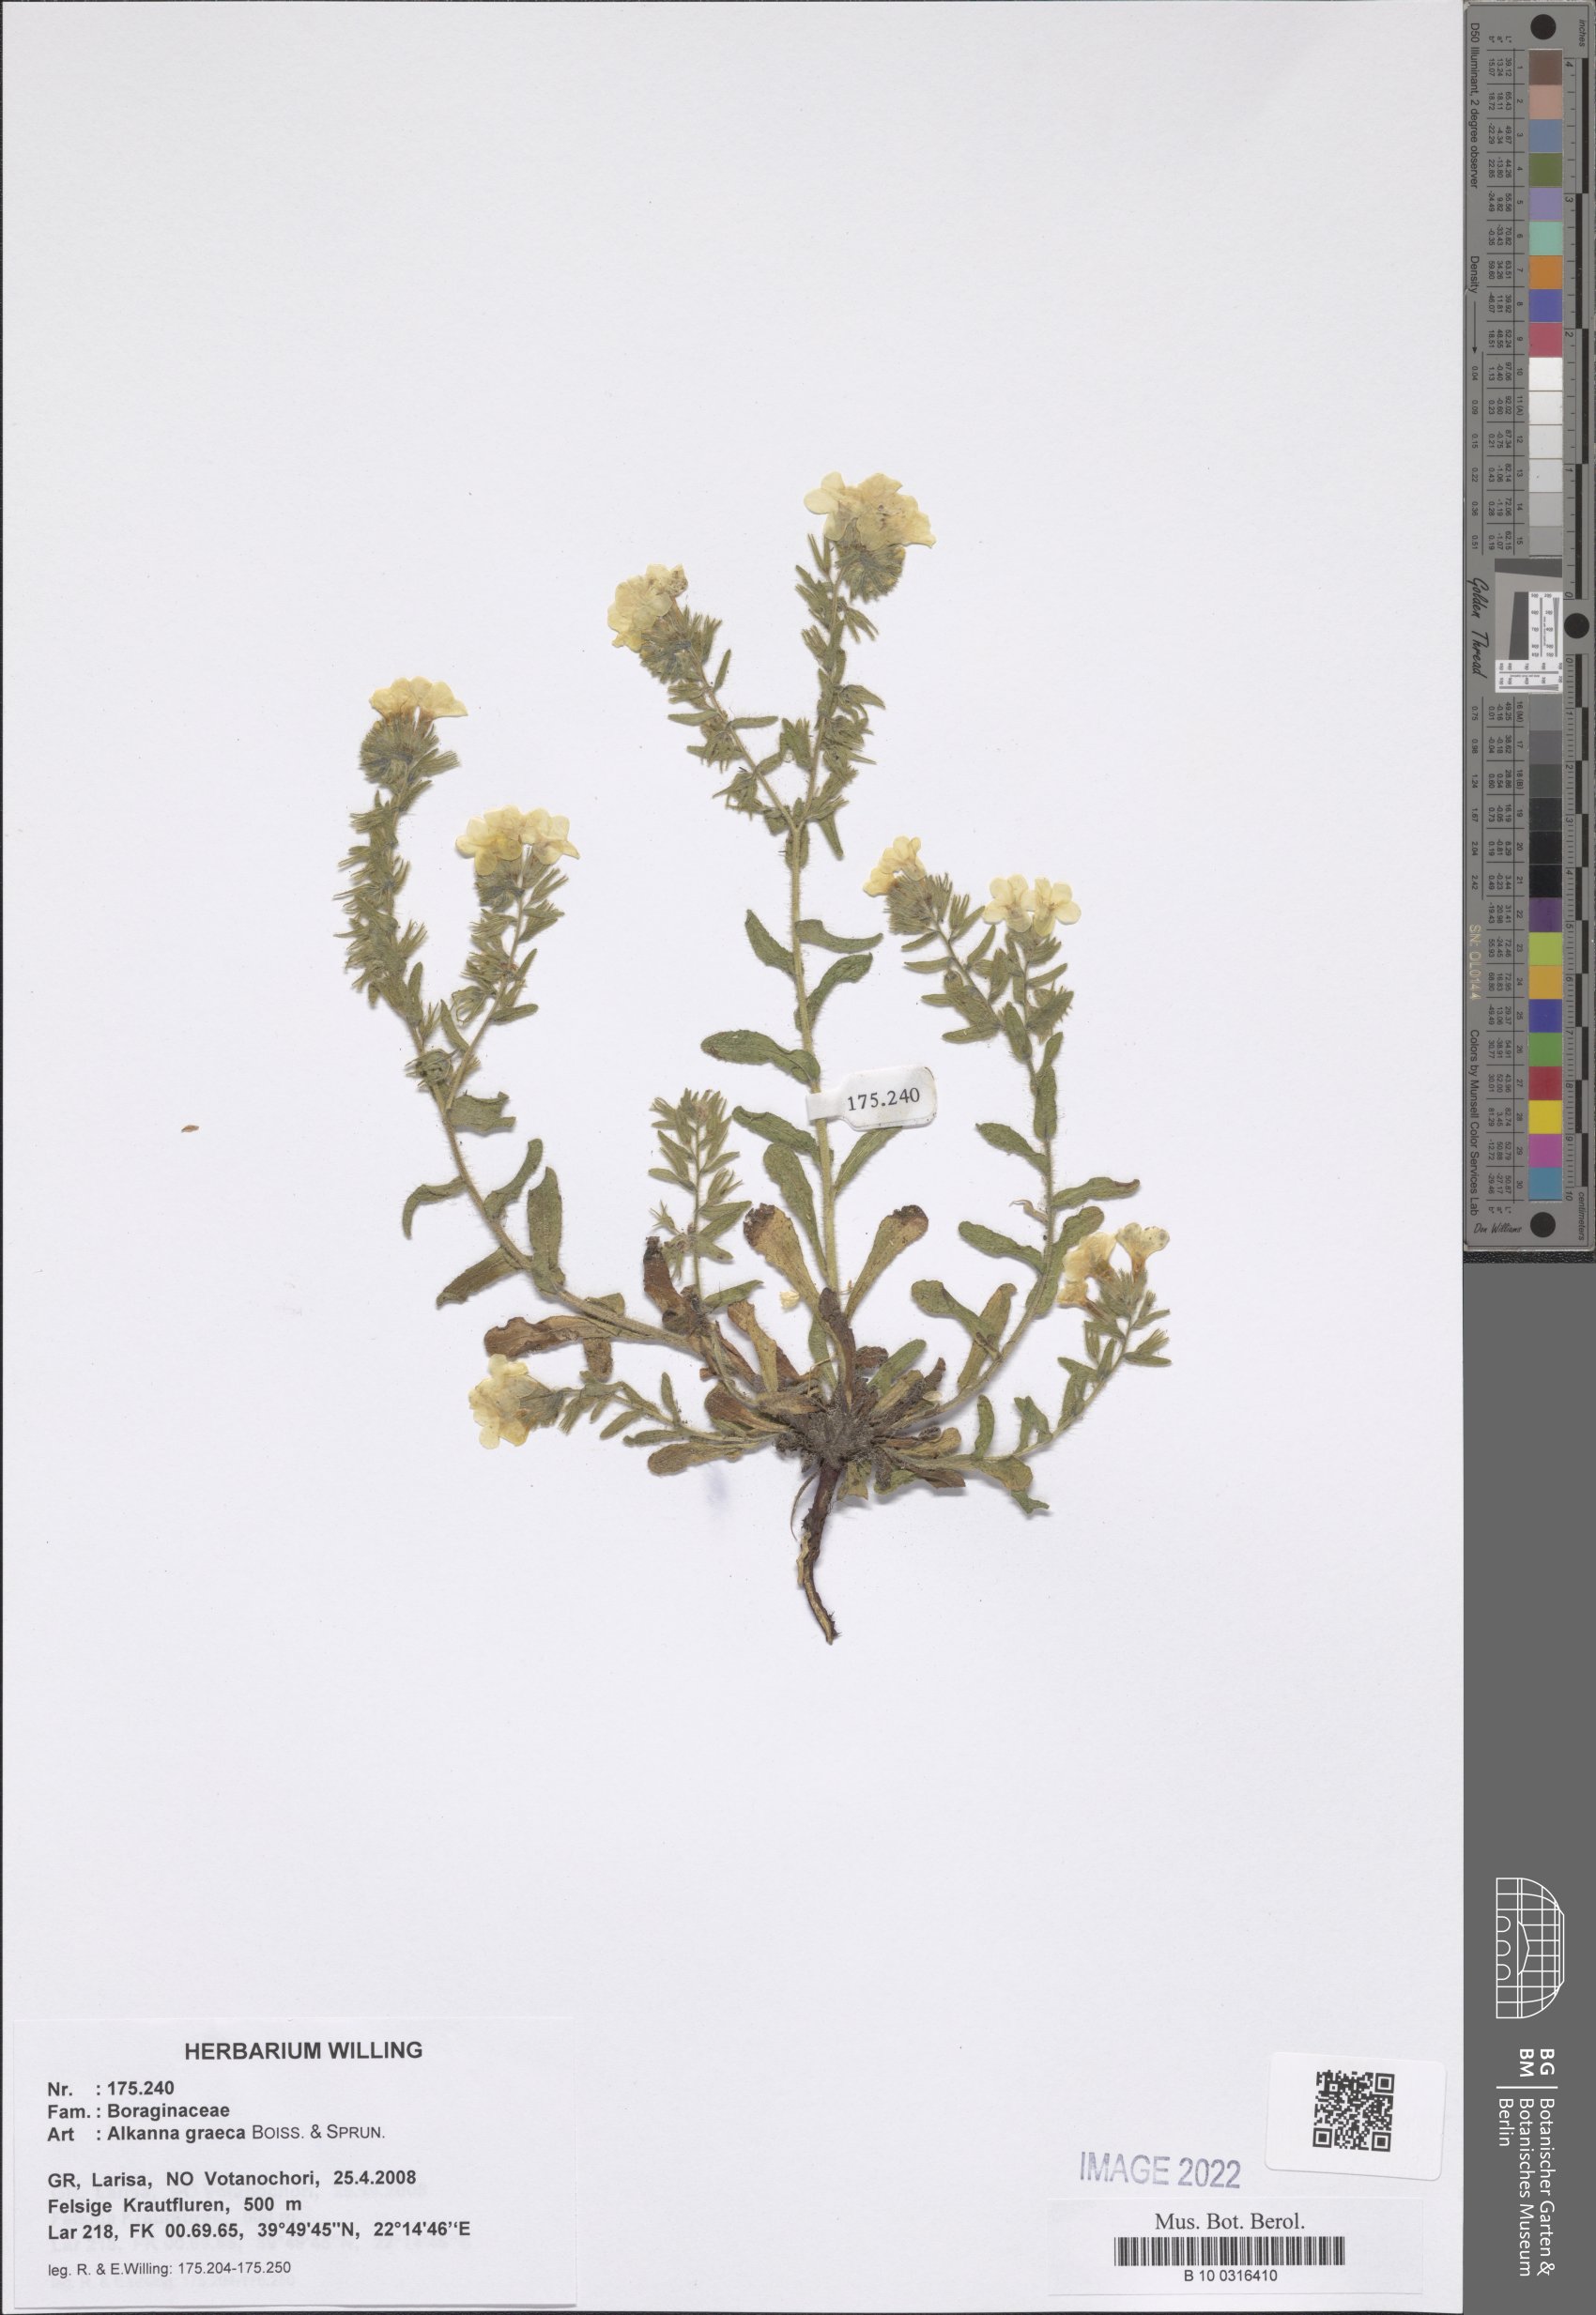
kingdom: Plantae
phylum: Tracheophyta
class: Magnoliopsida
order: Boraginales
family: Boraginaceae
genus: Alkanna
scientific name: Alkanna graeca
